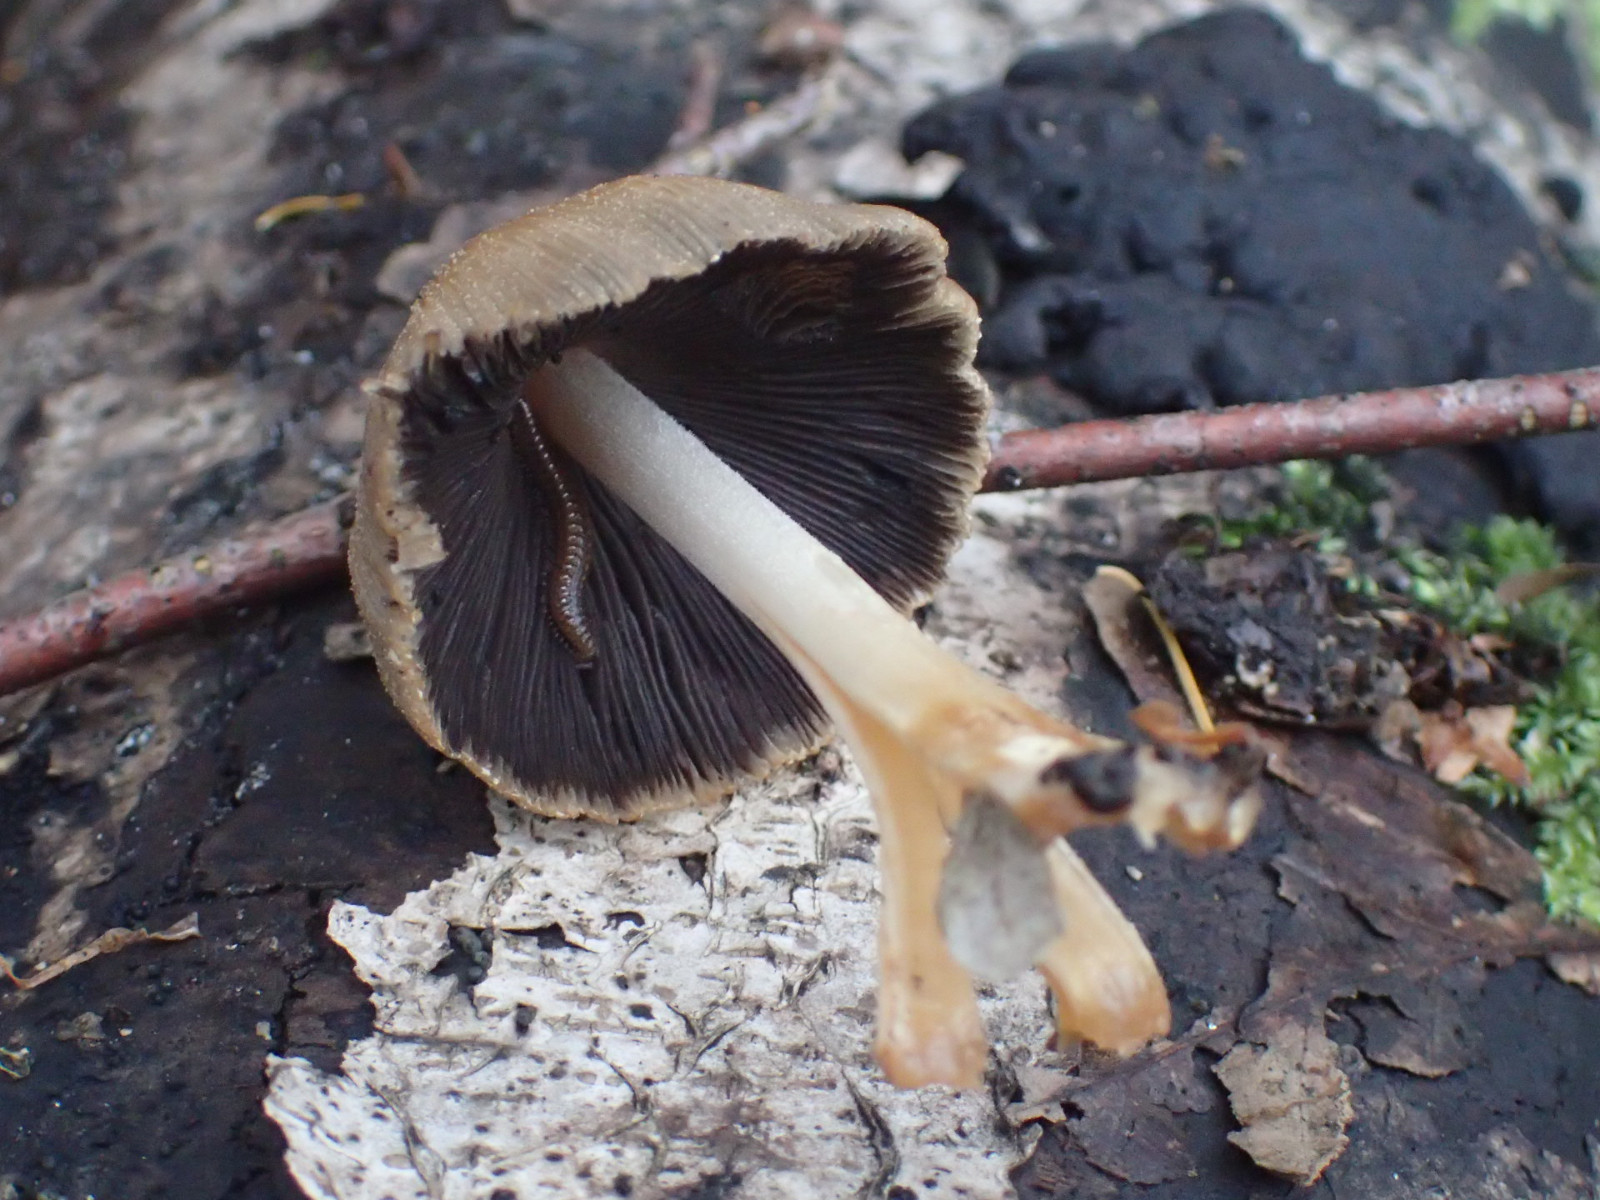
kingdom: Fungi
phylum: Basidiomycota
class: Agaricomycetes
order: Agaricales
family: Psathyrellaceae
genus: Coprinellus
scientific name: Coprinellus
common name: blækhat
